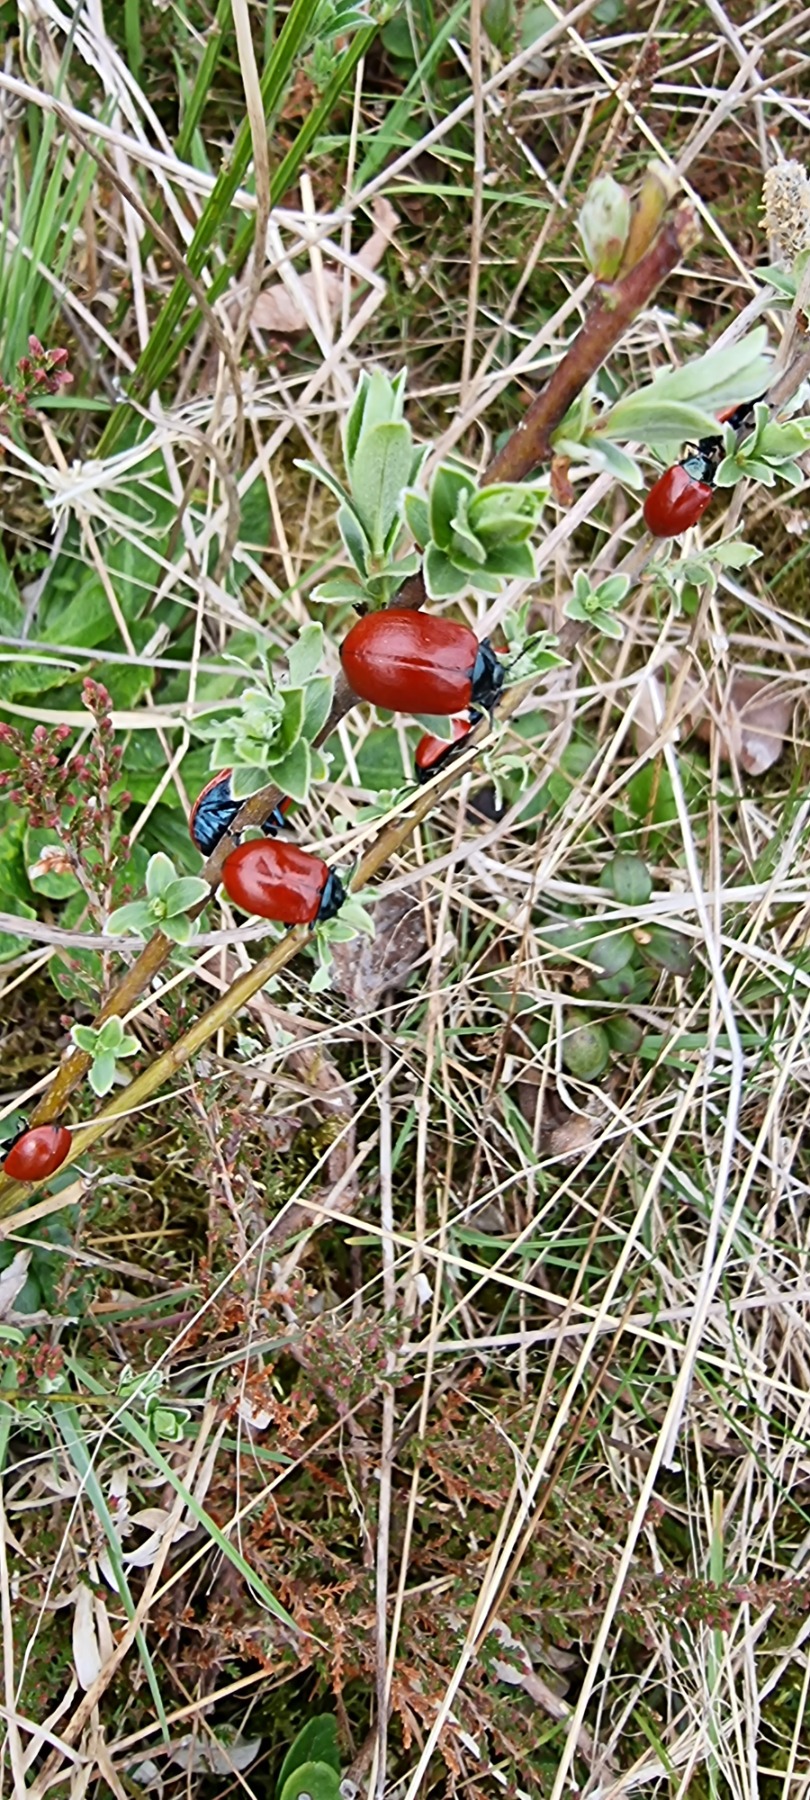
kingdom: Animalia
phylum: Arthropoda
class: Insecta
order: Coleoptera
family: Chrysomelidae
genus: Chrysomela
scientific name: Chrysomela populi
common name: Poppelbladbille
